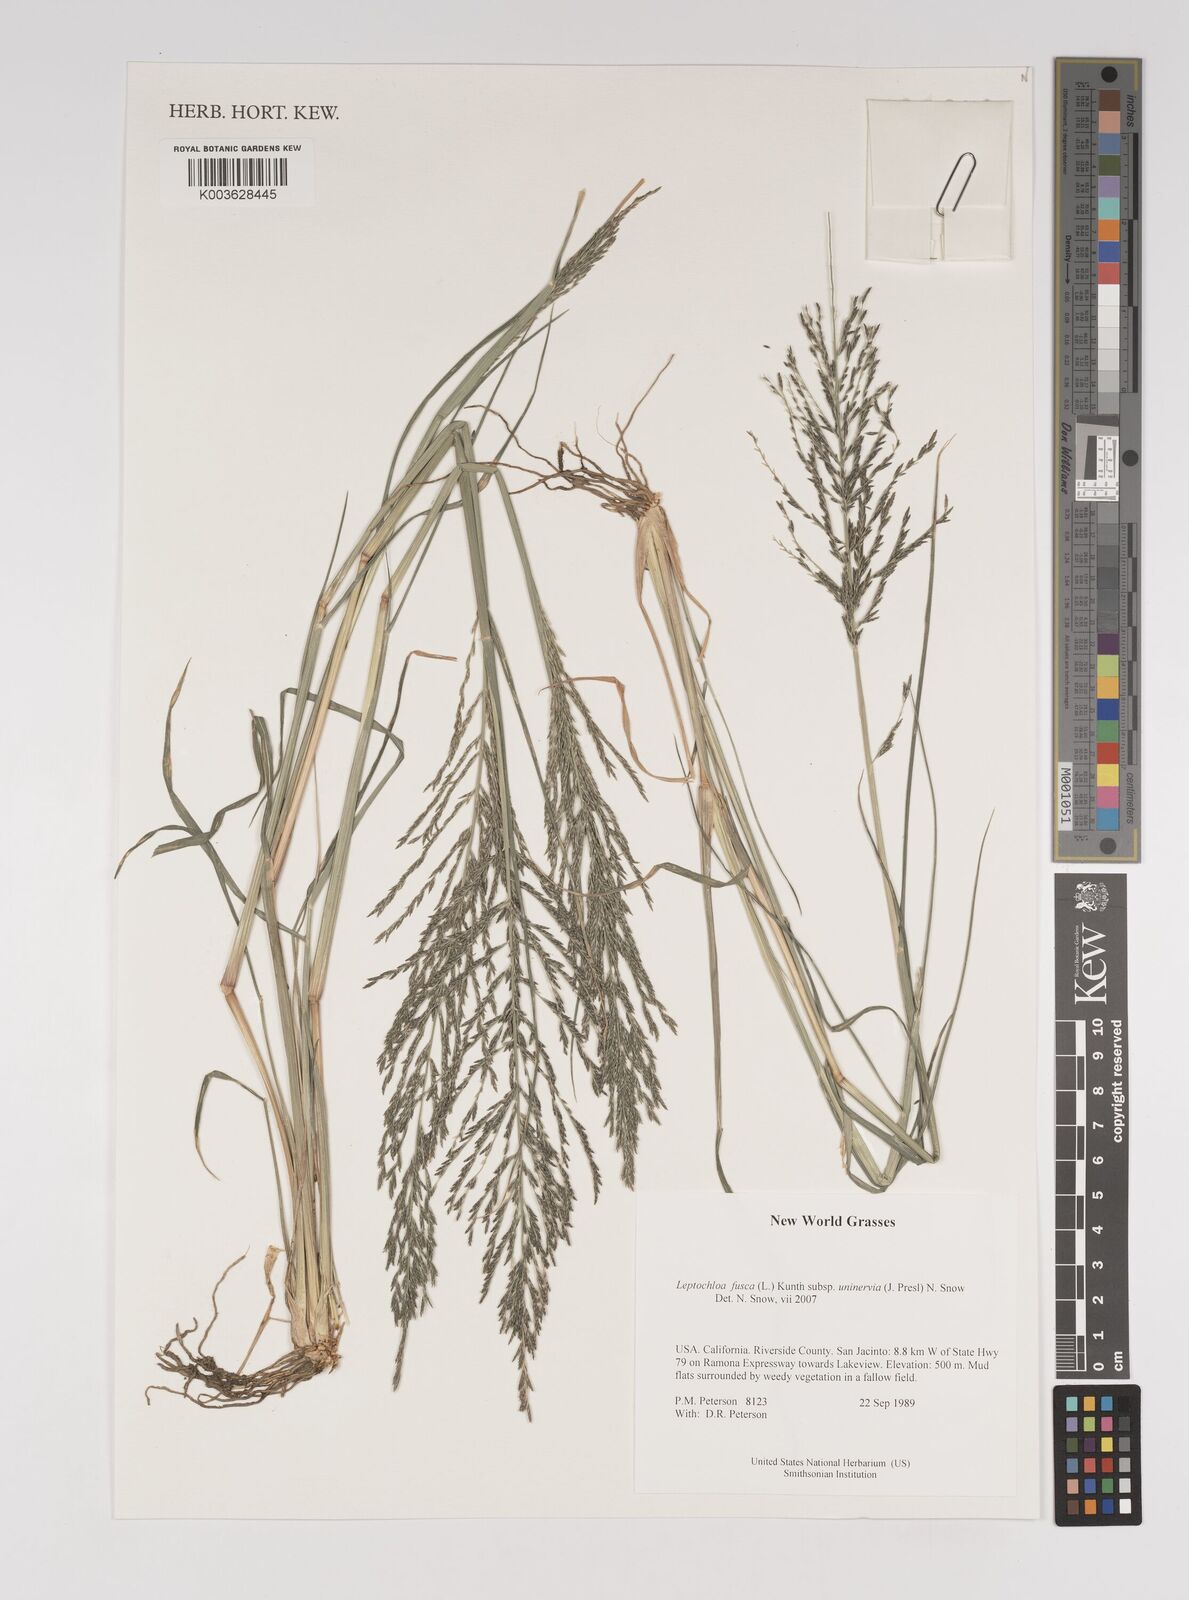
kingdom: Plantae
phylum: Tracheophyta
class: Liliopsida
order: Poales
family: Poaceae
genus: Diplachne
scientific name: Diplachne fusca
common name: Brown beetle grass
